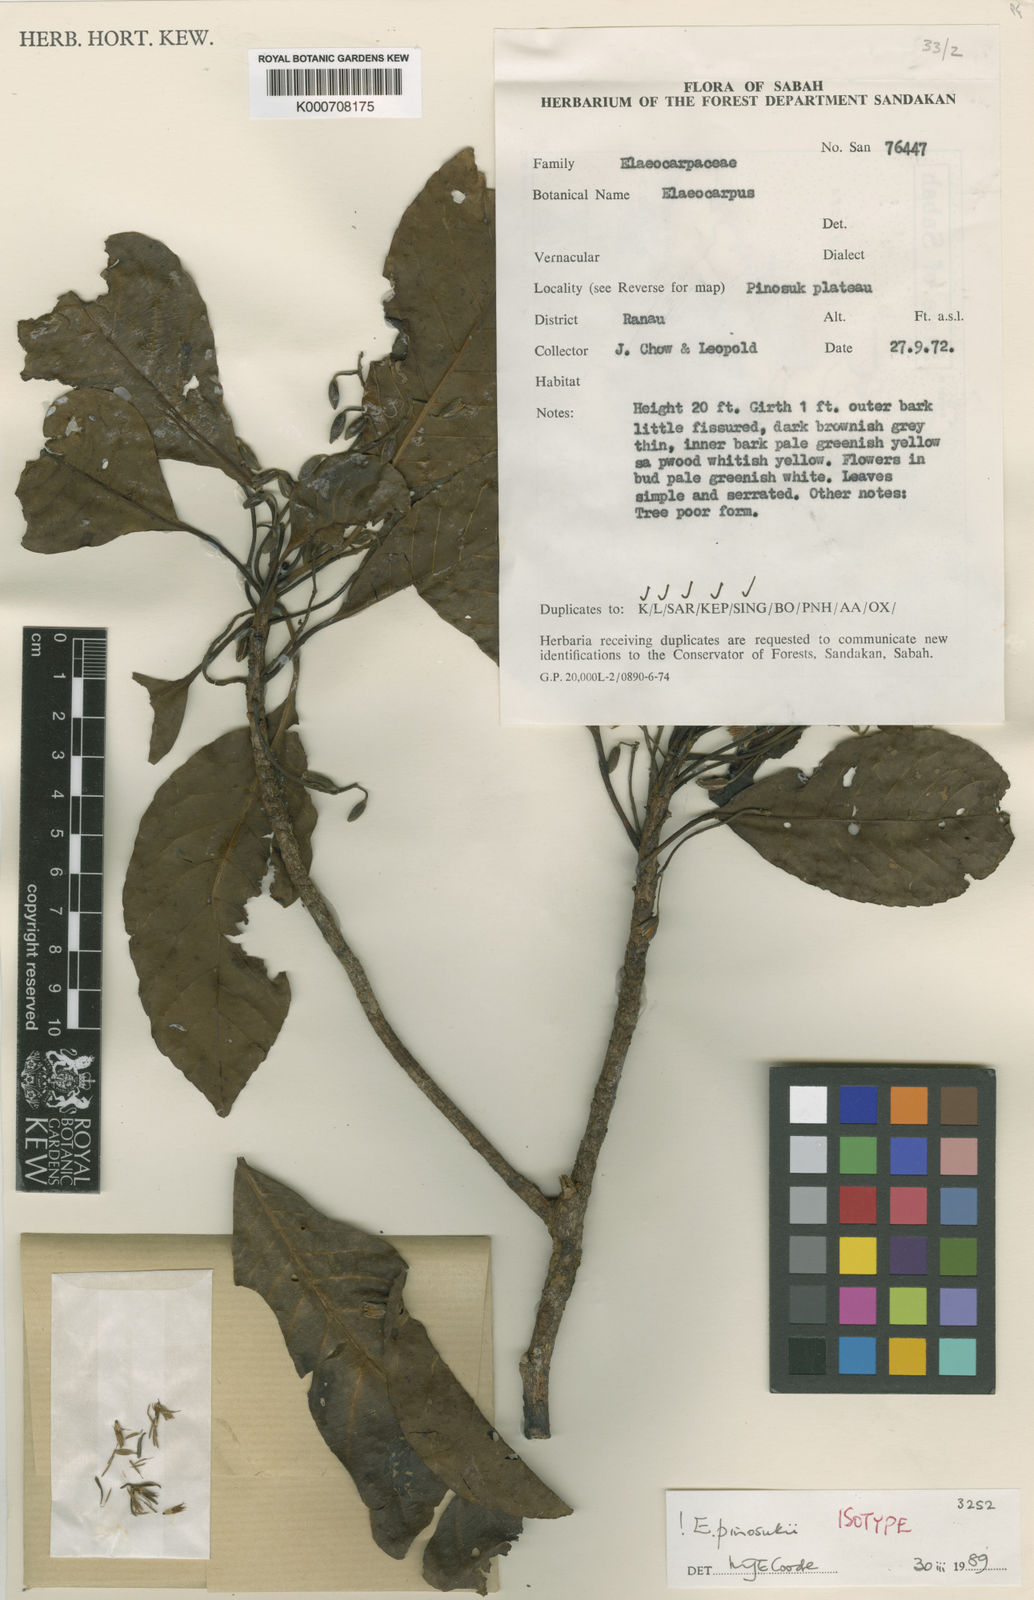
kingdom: Plantae
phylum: Tracheophyta
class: Magnoliopsida
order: Oxalidales
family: Elaeocarpaceae
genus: Elaeocarpus
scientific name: Elaeocarpus pinosukii
